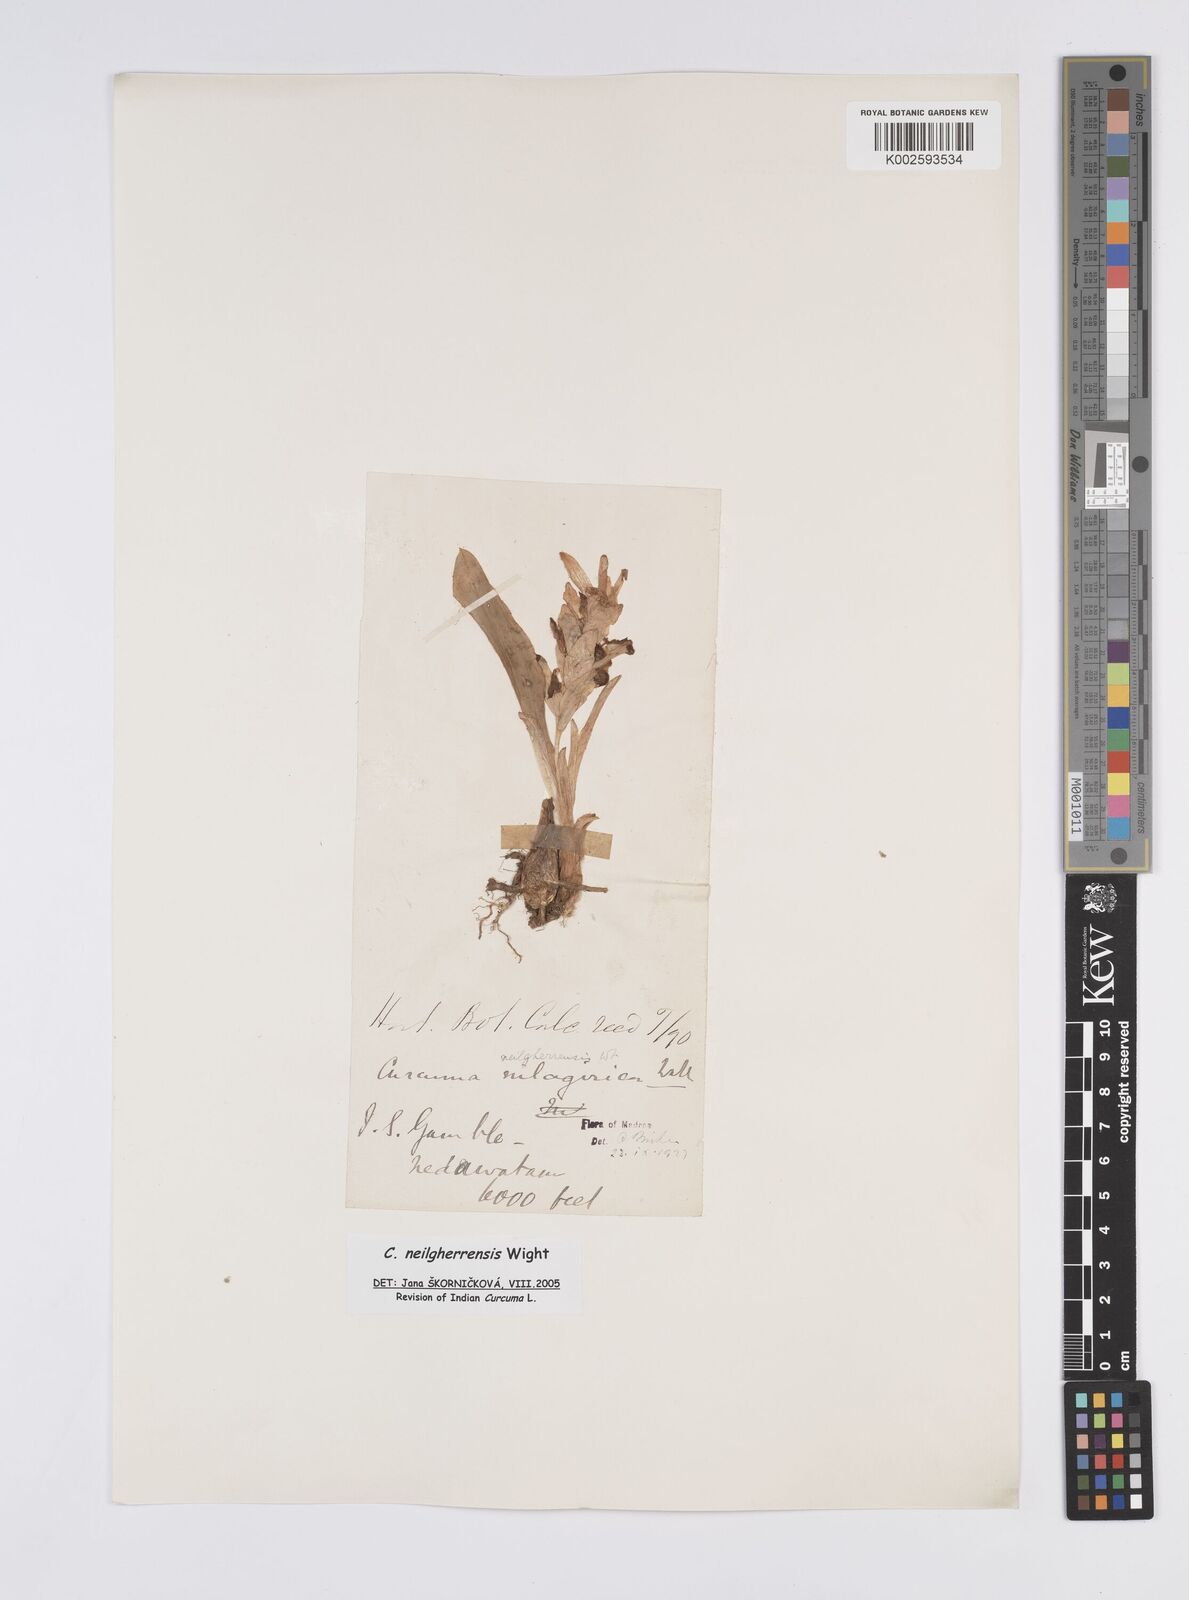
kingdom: Plantae
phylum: Tracheophyta
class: Liliopsida
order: Zingiberales
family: Zingiberaceae
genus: Curcuma
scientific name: Curcuma neilgherrensis
